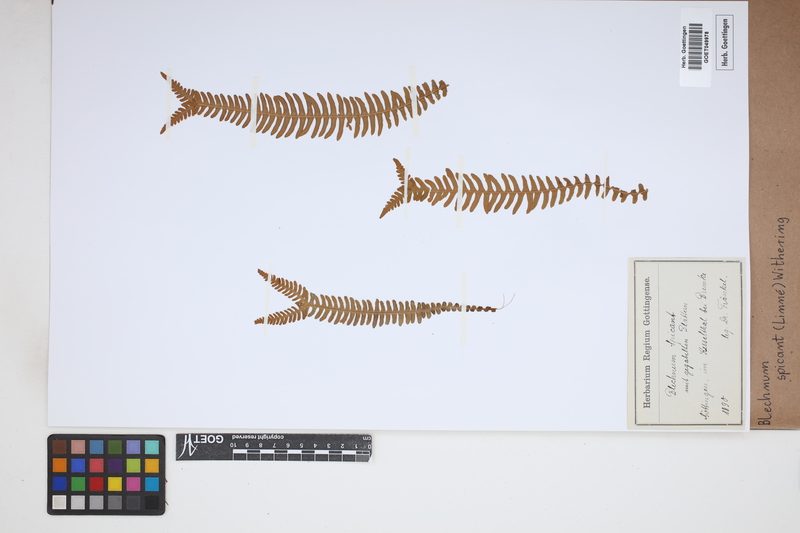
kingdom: Plantae
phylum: Tracheophyta
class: Polypodiopsida
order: Polypodiales
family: Blechnaceae
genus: Struthiopteris
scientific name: Struthiopteris spicant
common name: Deer fern
